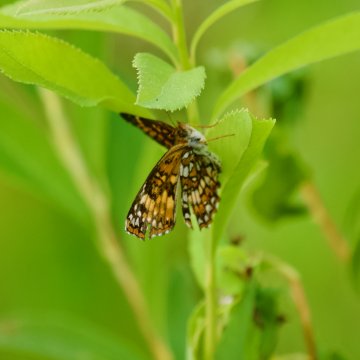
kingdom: Animalia
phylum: Arthropoda
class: Insecta
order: Lepidoptera
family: Nymphalidae
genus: Chlosyne
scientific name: Chlosyne harrisii
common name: Harris's Checkerspot
